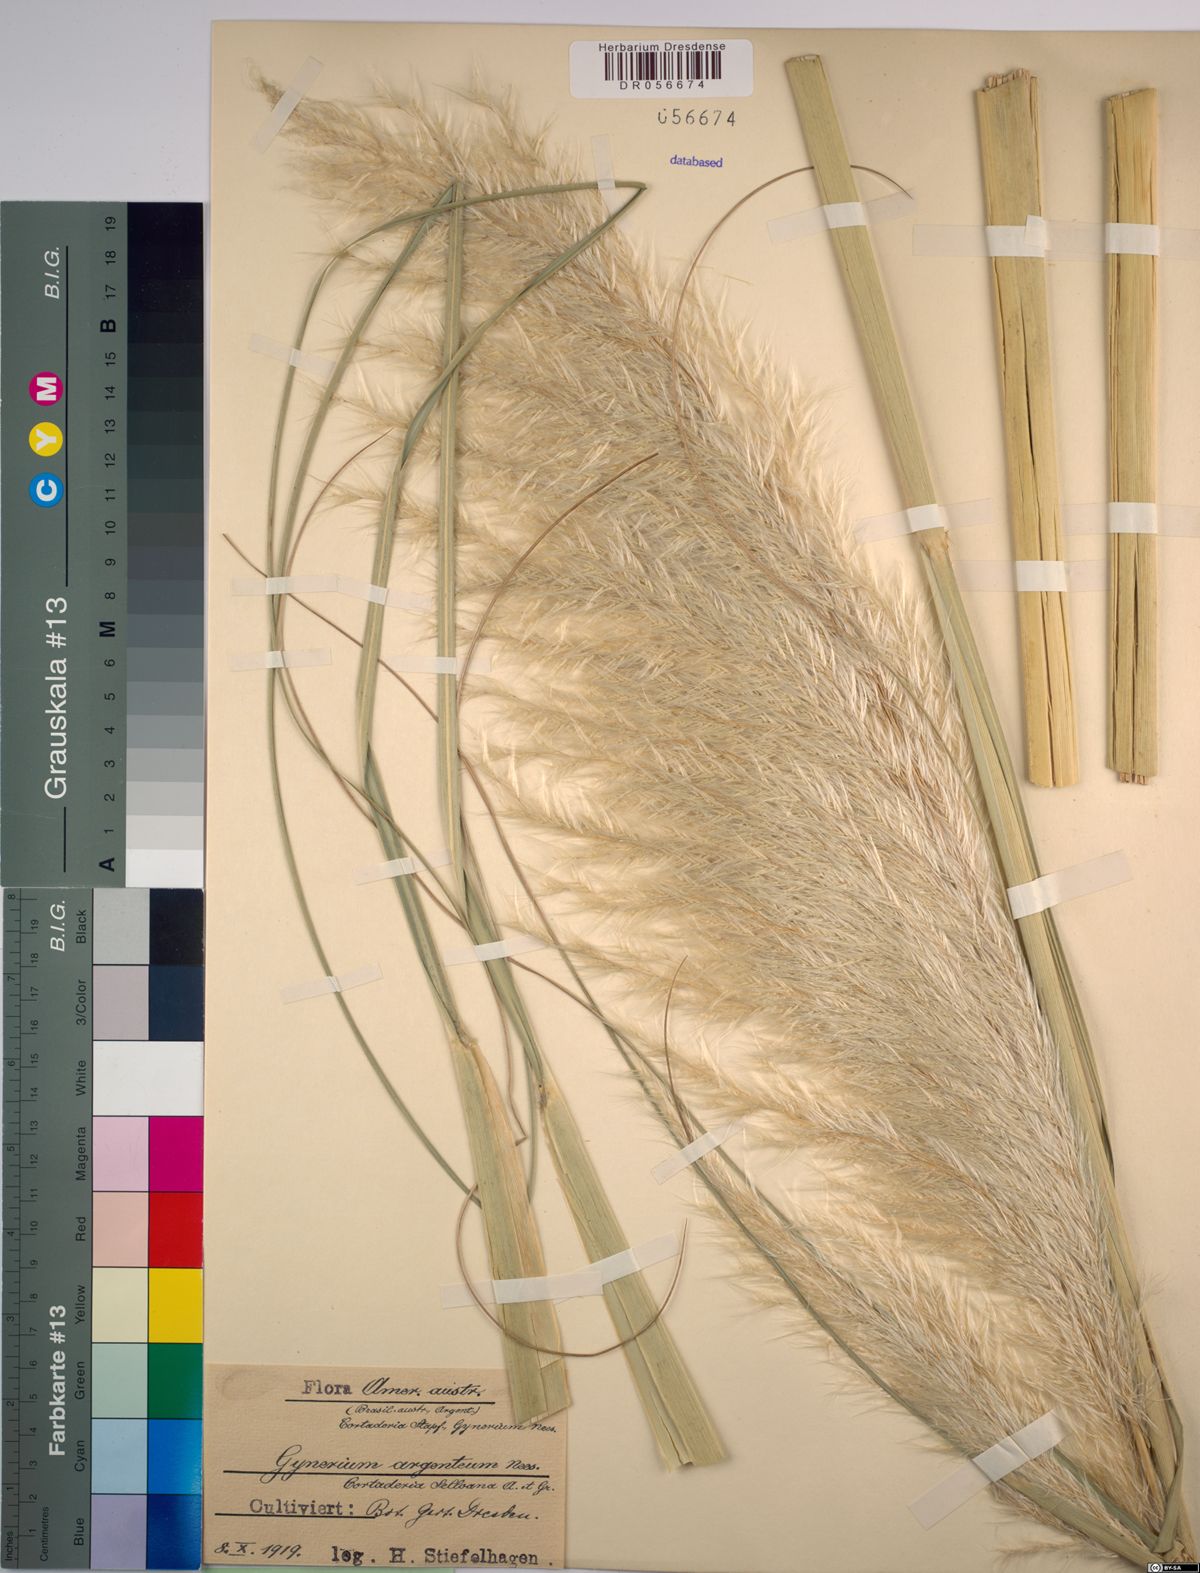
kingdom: Plantae
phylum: Tracheophyta
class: Liliopsida
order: Poales
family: Poaceae
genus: Cortaderia
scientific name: Cortaderia selloana
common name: Uruguayan pampas grass
